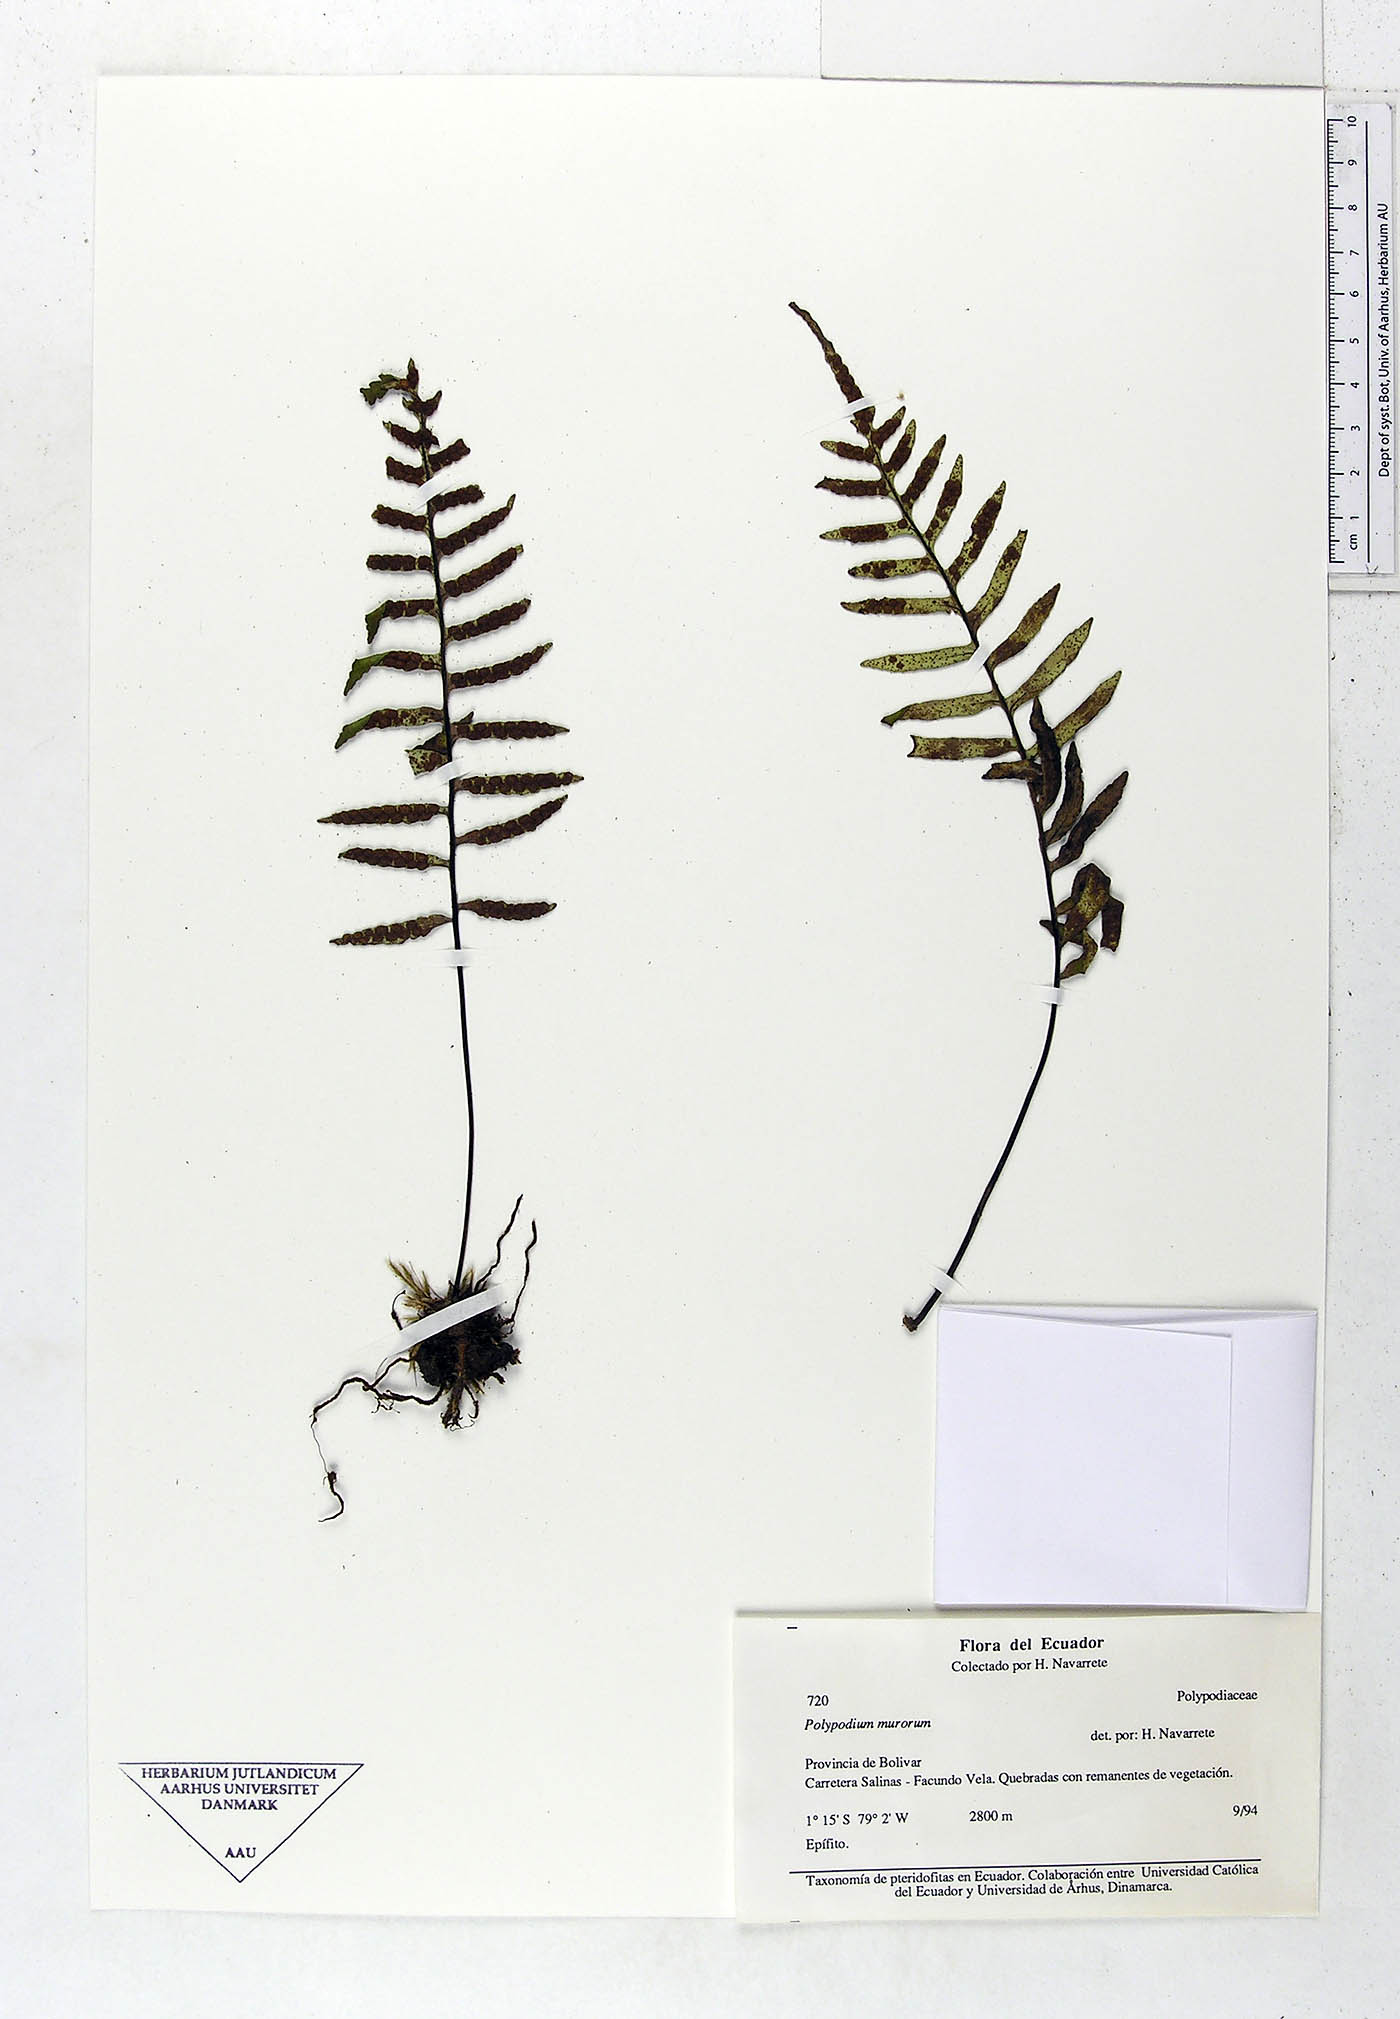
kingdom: Plantae
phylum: Tracheophyta
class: Polypodiopsida
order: Polypodiales
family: Polypodiaceae
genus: Pleopeltis
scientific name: Pleopeltis murora
